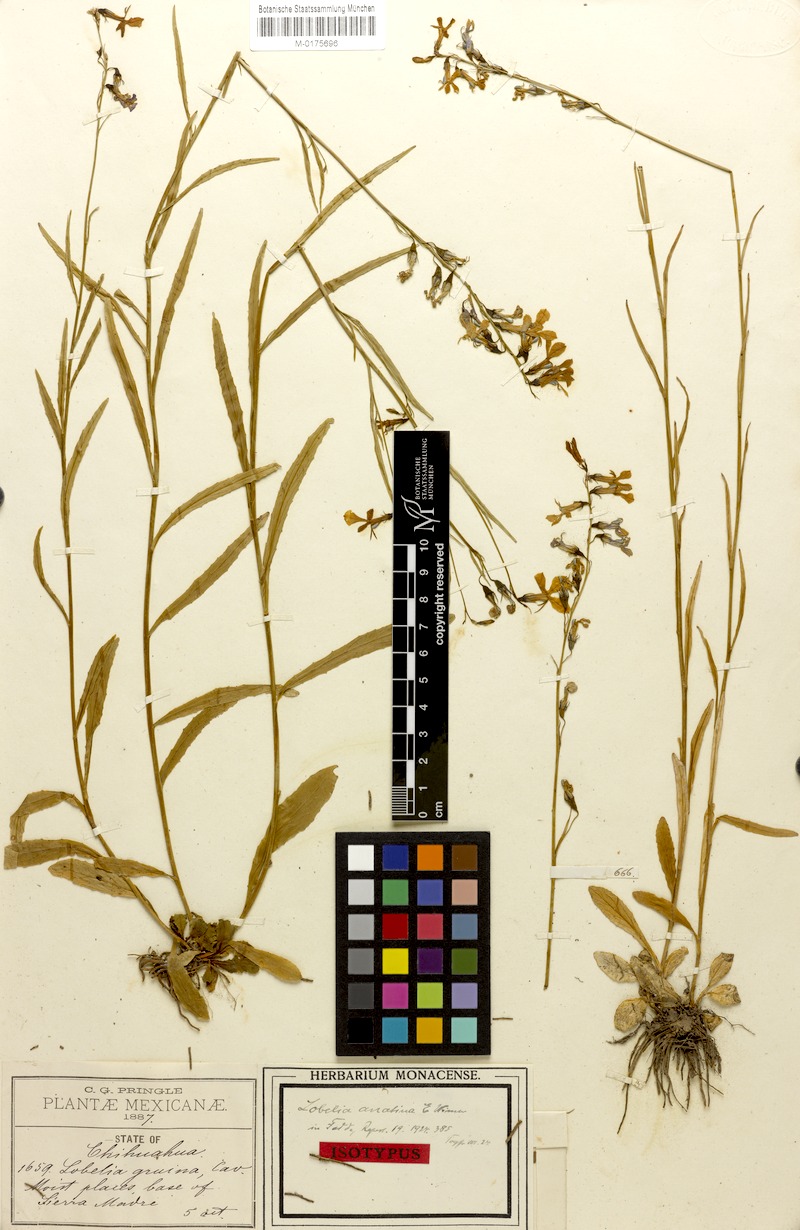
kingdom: Plantae
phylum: Tracheophyta
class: Magnoliopsida
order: Asterales
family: Campanulaceae
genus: Lobelia
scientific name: Lobelia anatina
